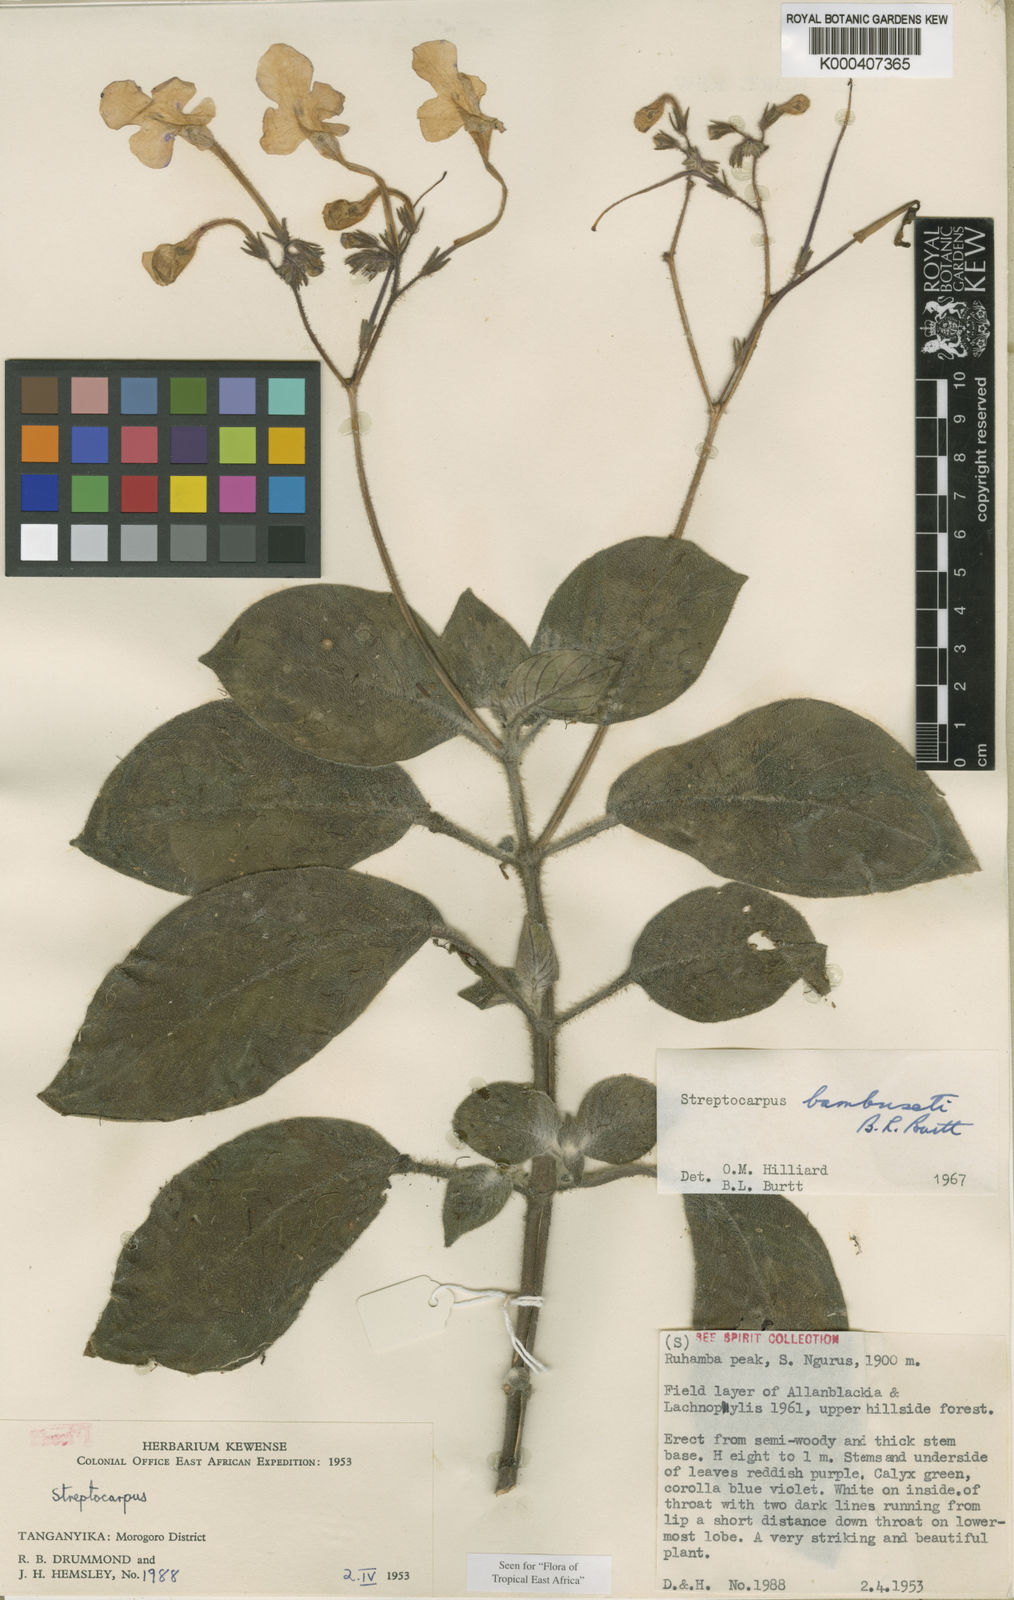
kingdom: Plantae
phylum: Tracheophyta
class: Magnoliopsida
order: Lamiales
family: Gesneriaceae
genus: Streptocarpus
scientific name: Streptocarpus bambuseti
